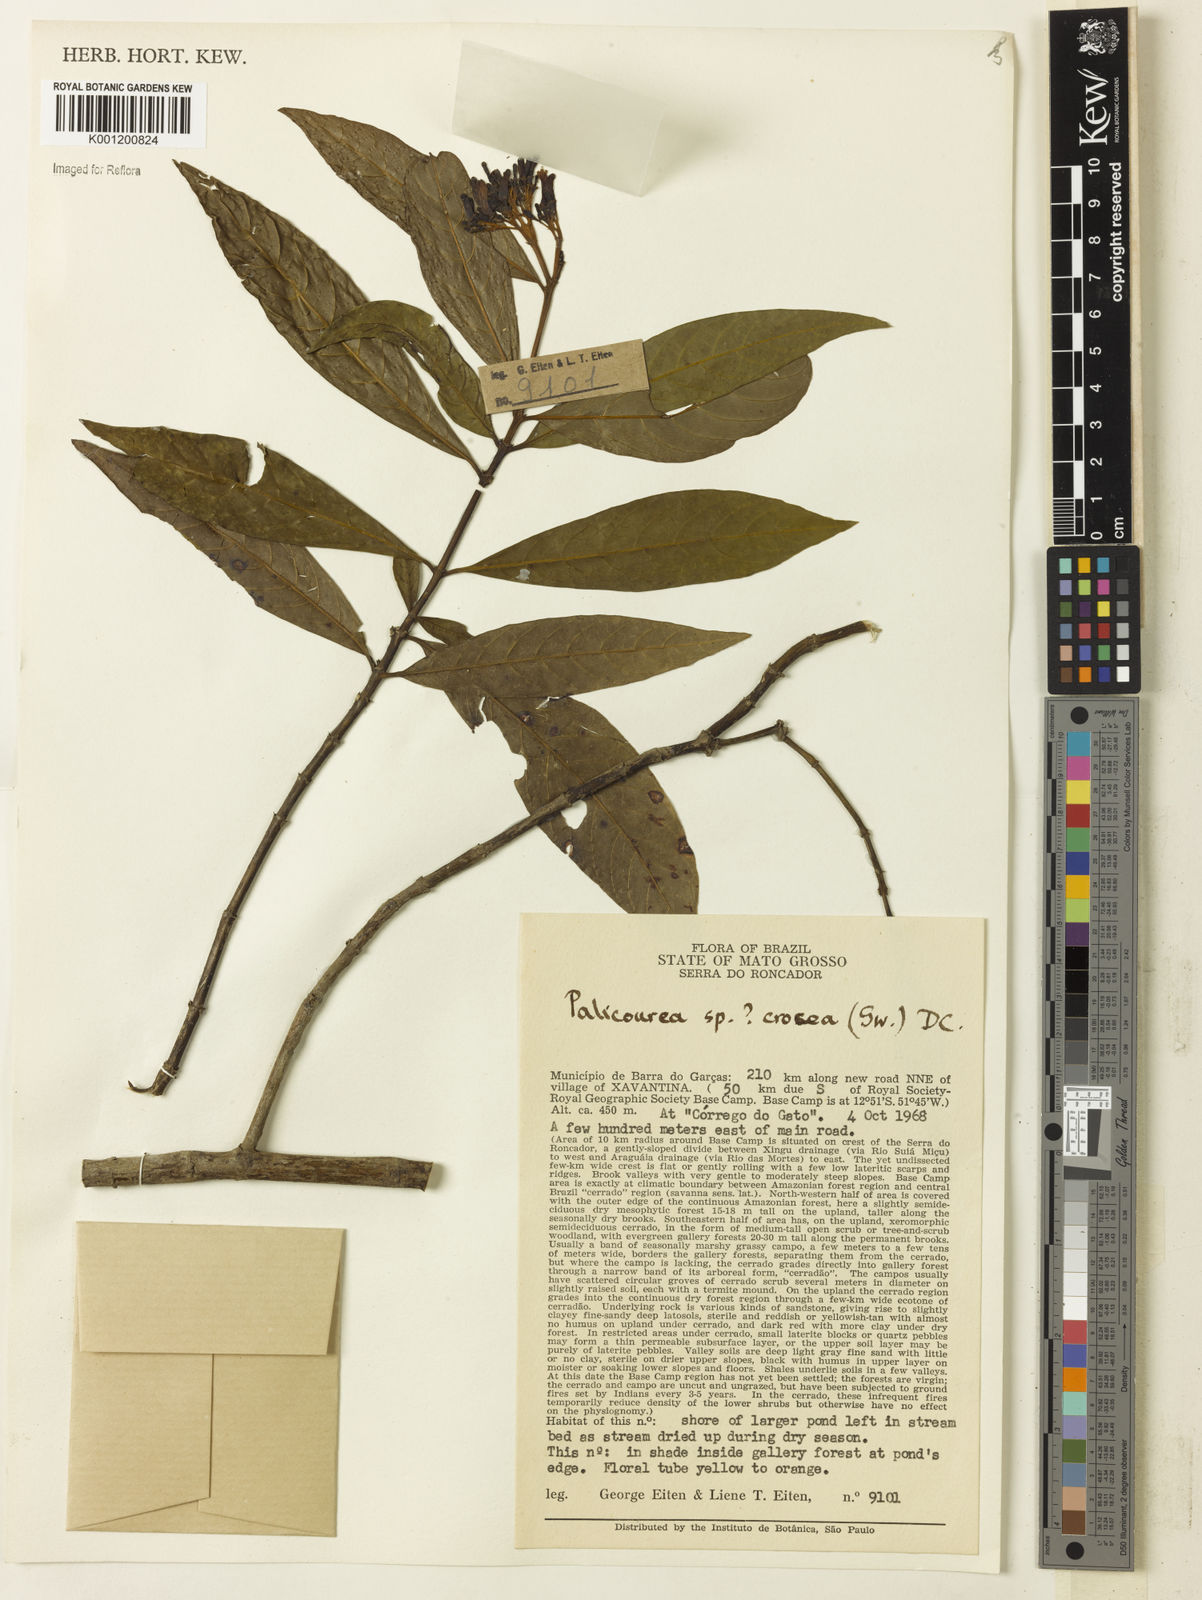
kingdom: Plantae
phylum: Tracheophyta
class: Magnoliopsida
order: Gentianales
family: Rubiaceae
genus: Palicourea
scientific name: Palicourea crocea
